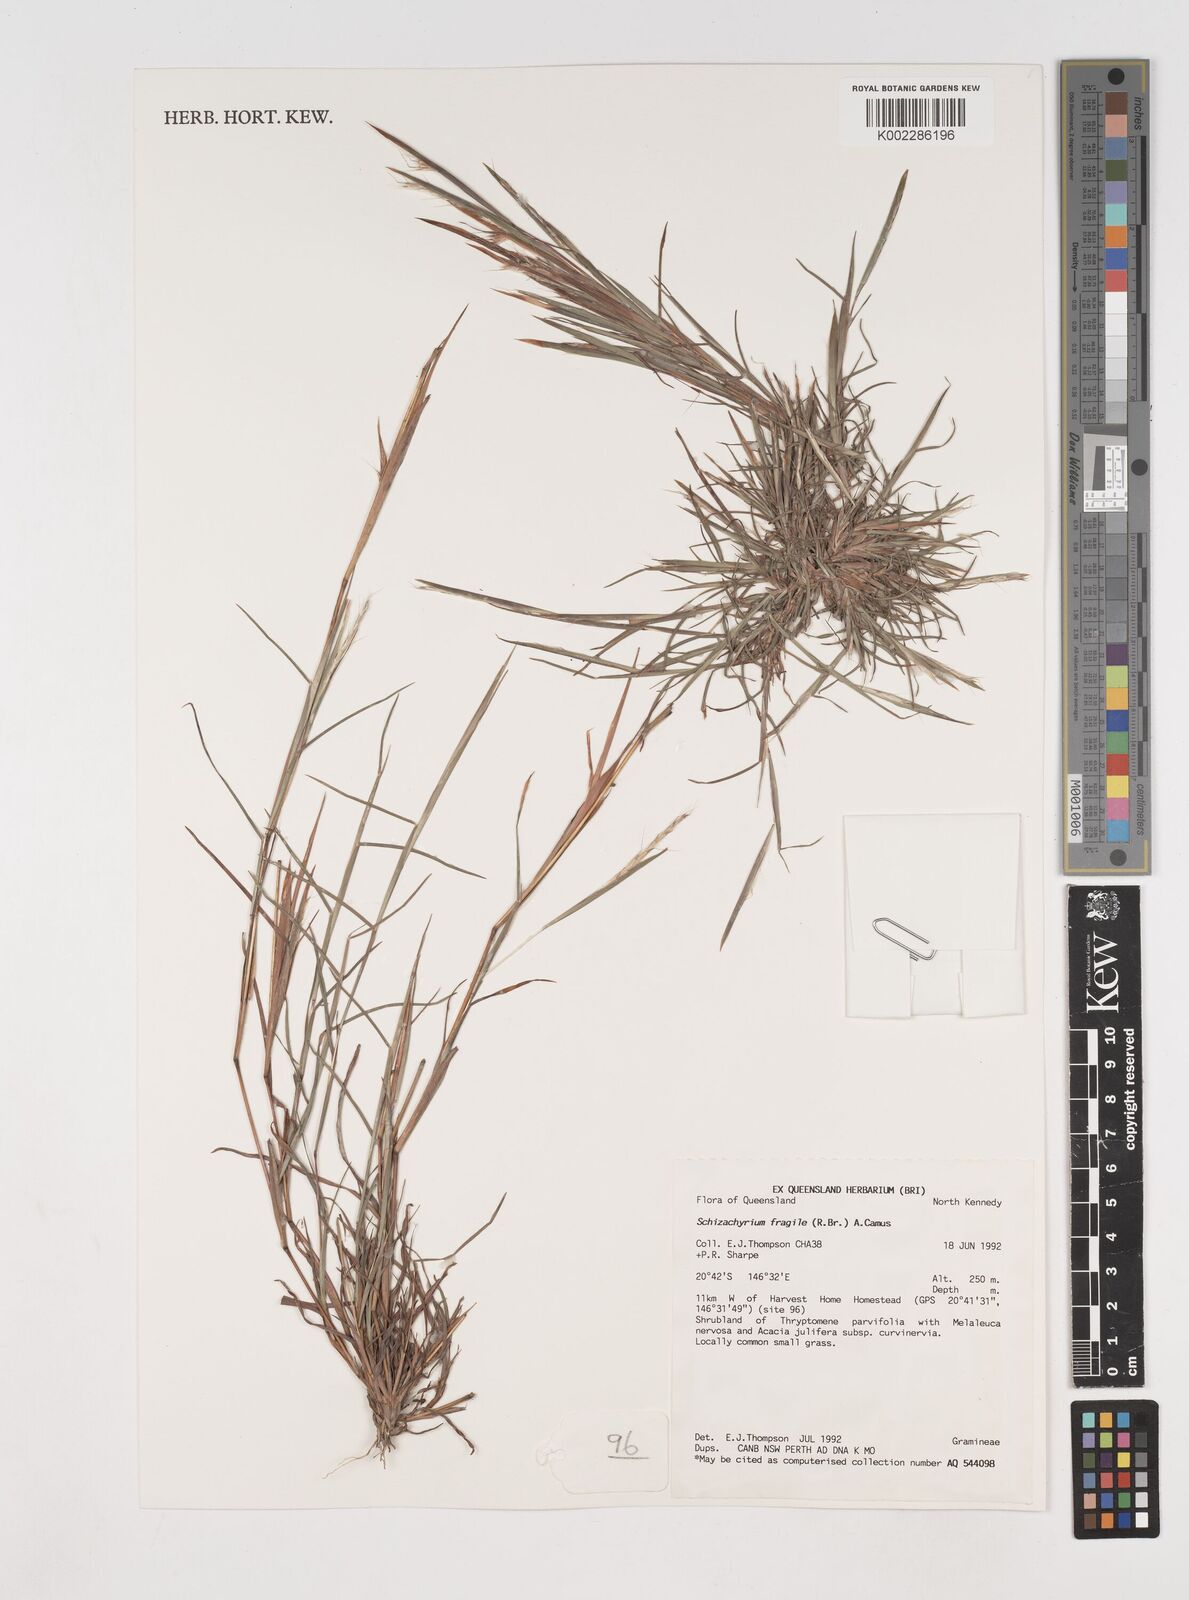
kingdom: Plantae
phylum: Tracheophyta
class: Liliopsida
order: Poales
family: Poaceae
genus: Schizachyrium
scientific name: Schizachyrium fragile
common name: Red spathe grass
